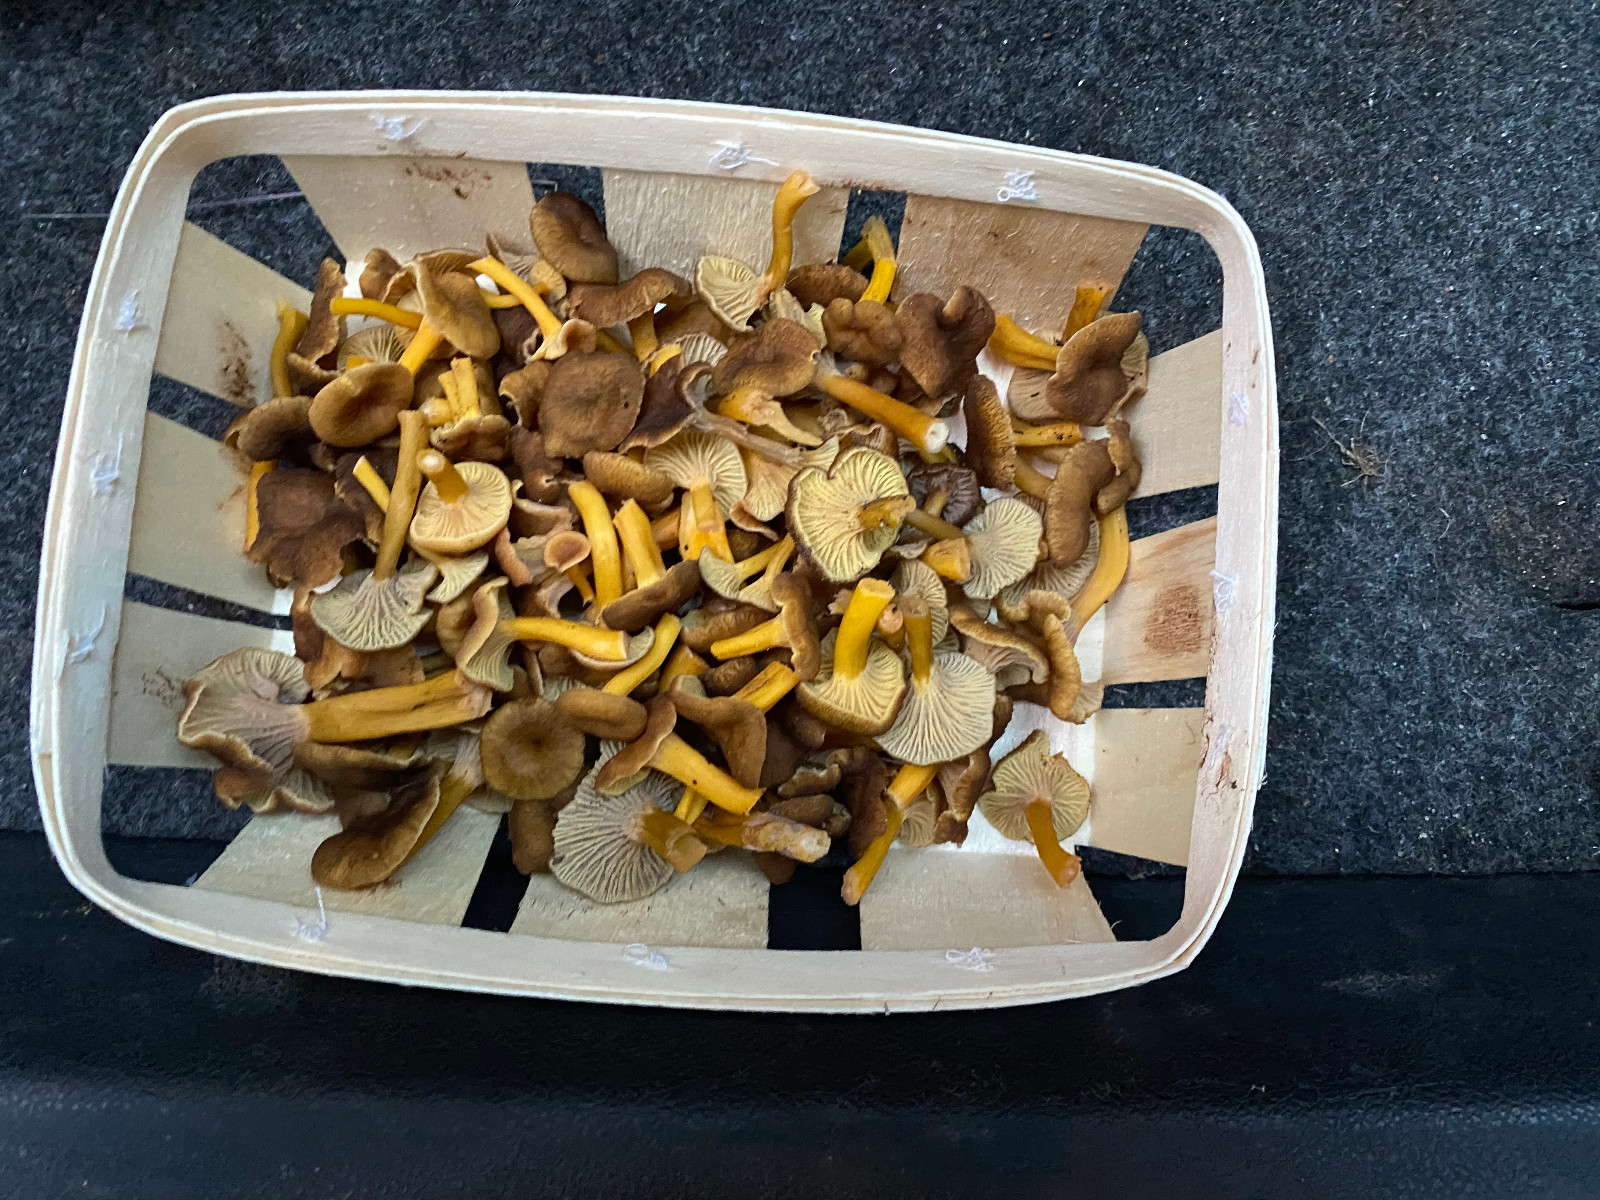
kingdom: Fungi
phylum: Basidiomycota
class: Agaricomycetes
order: Cantharellales
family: Hydnaceae
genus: Craterellus
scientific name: Craterellus tubaeformis
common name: tragt-kantarel
